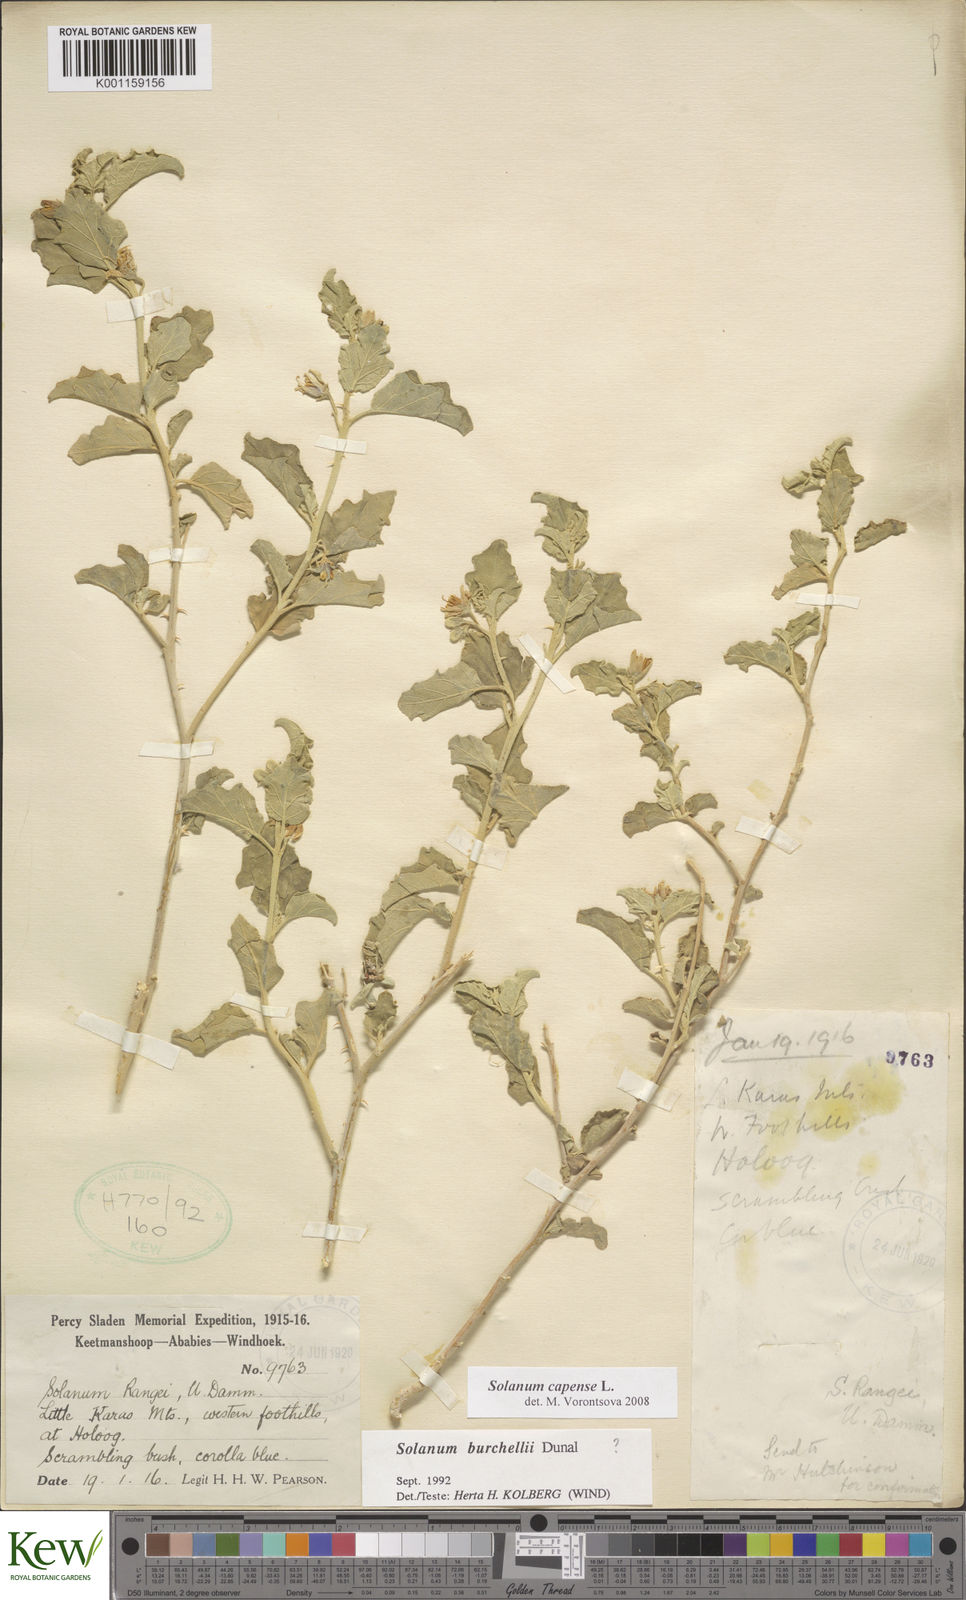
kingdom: Plantae
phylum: Tracheophyta
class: Magnoliopsida
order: Solanales
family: Solanaceae
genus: Solanum
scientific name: Solanum capense
